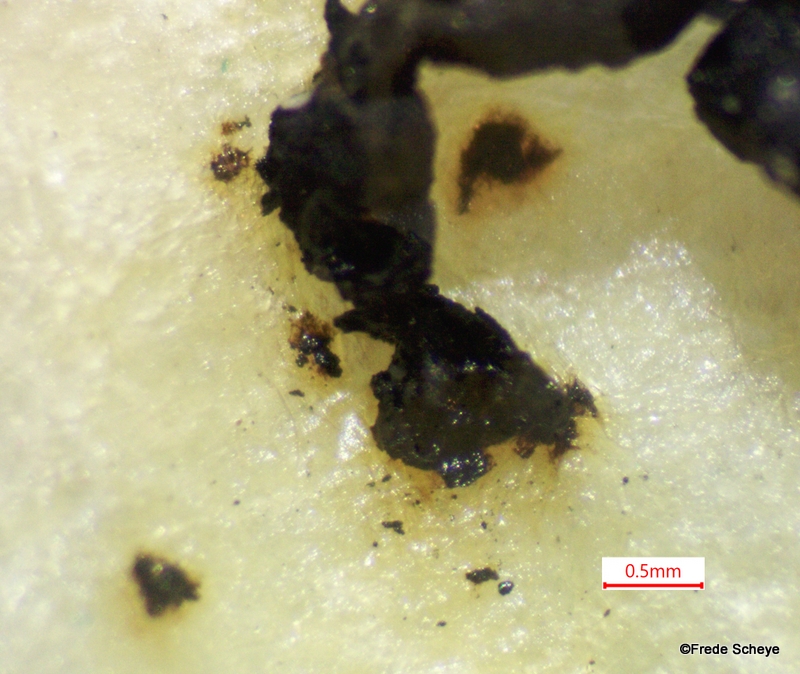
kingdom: Fungi
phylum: Ascomycota
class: Sordariomycetes
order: Xylariales
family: Hypoxylaceae
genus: Jackrogersella
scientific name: Jackrogersella cohaerens
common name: sammenflydende kulbær
